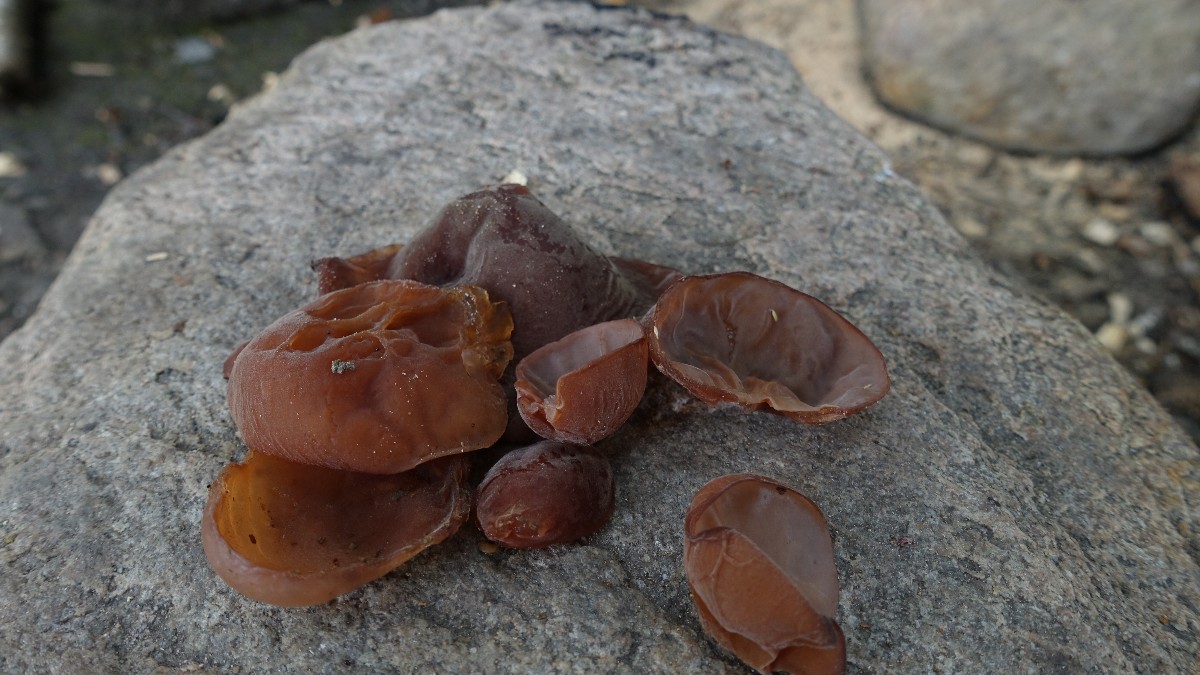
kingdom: Fungi
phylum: Basidiomycota
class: Agaricomycetes
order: Auriculariales
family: Auriculariaceae
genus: Auricularia
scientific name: Auricularia auricula-judae
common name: almindelig judasøre
